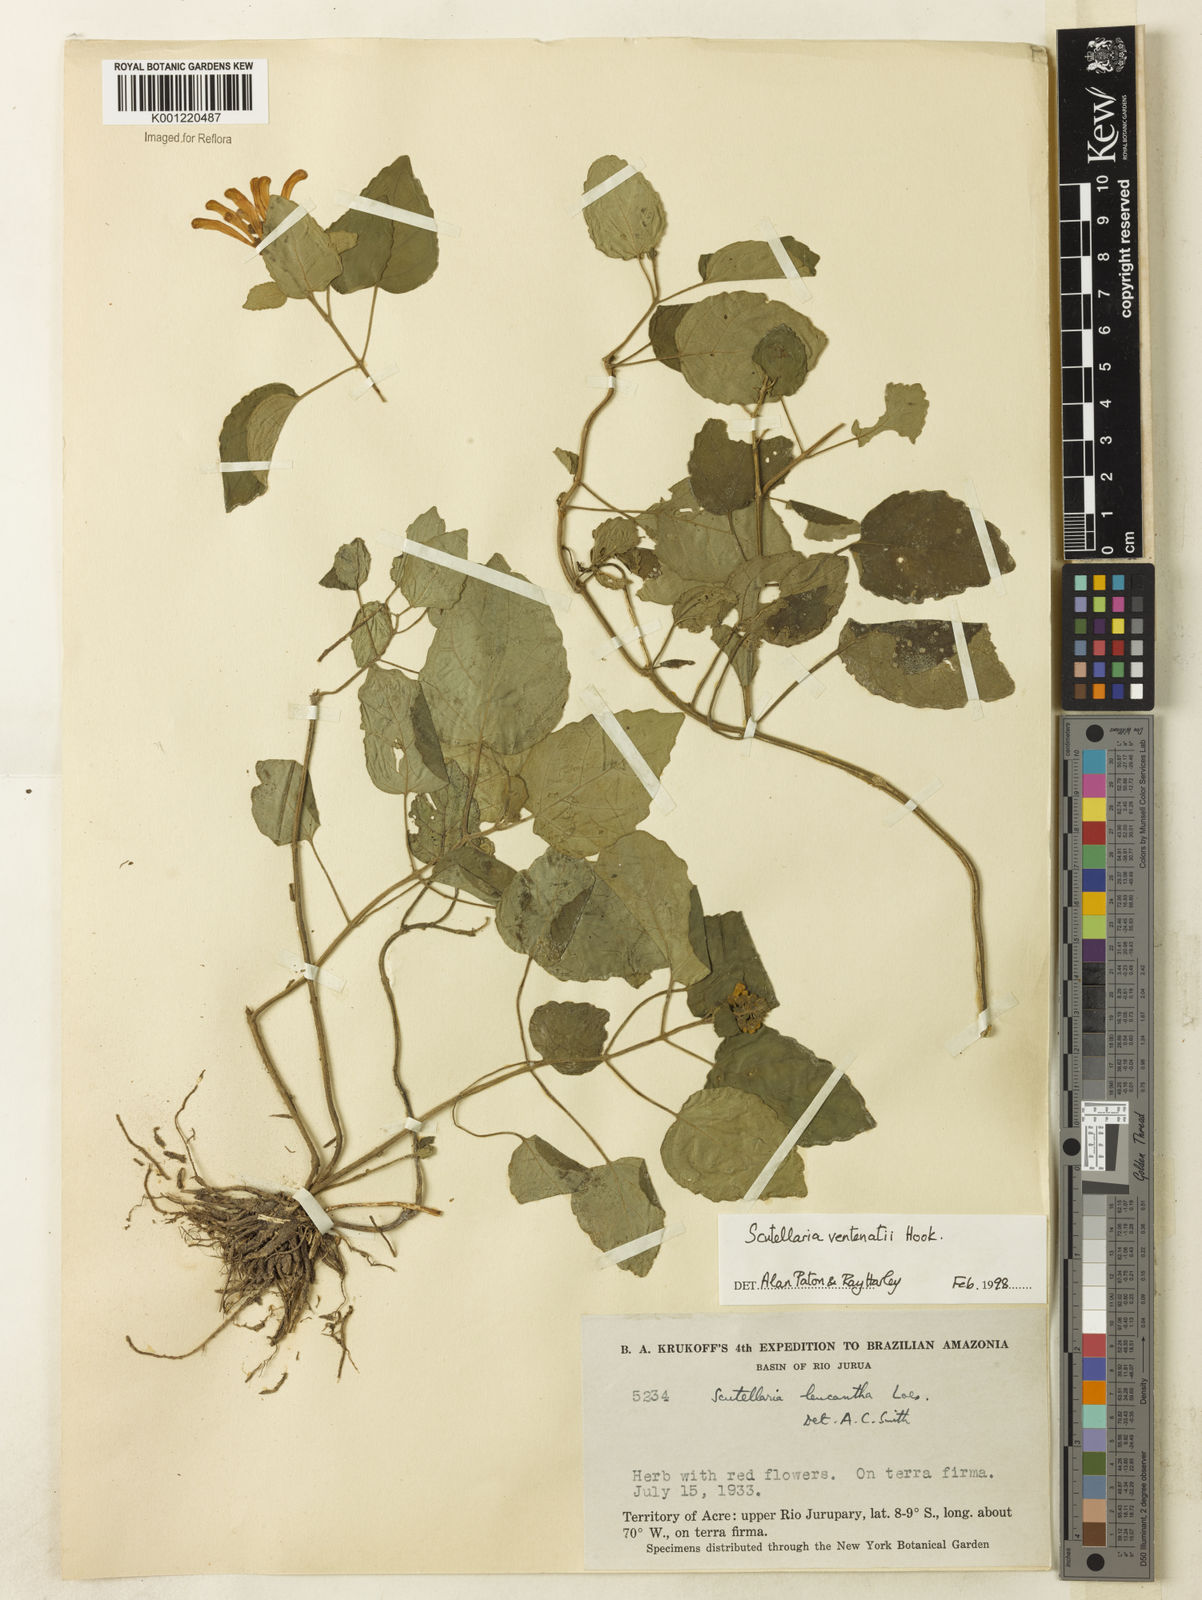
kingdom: Plantae
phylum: Tracheophyta
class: Magnoliopsida
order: Lamiales
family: Lamiaceae
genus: Scutellaria
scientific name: Scutellaria incarnata
